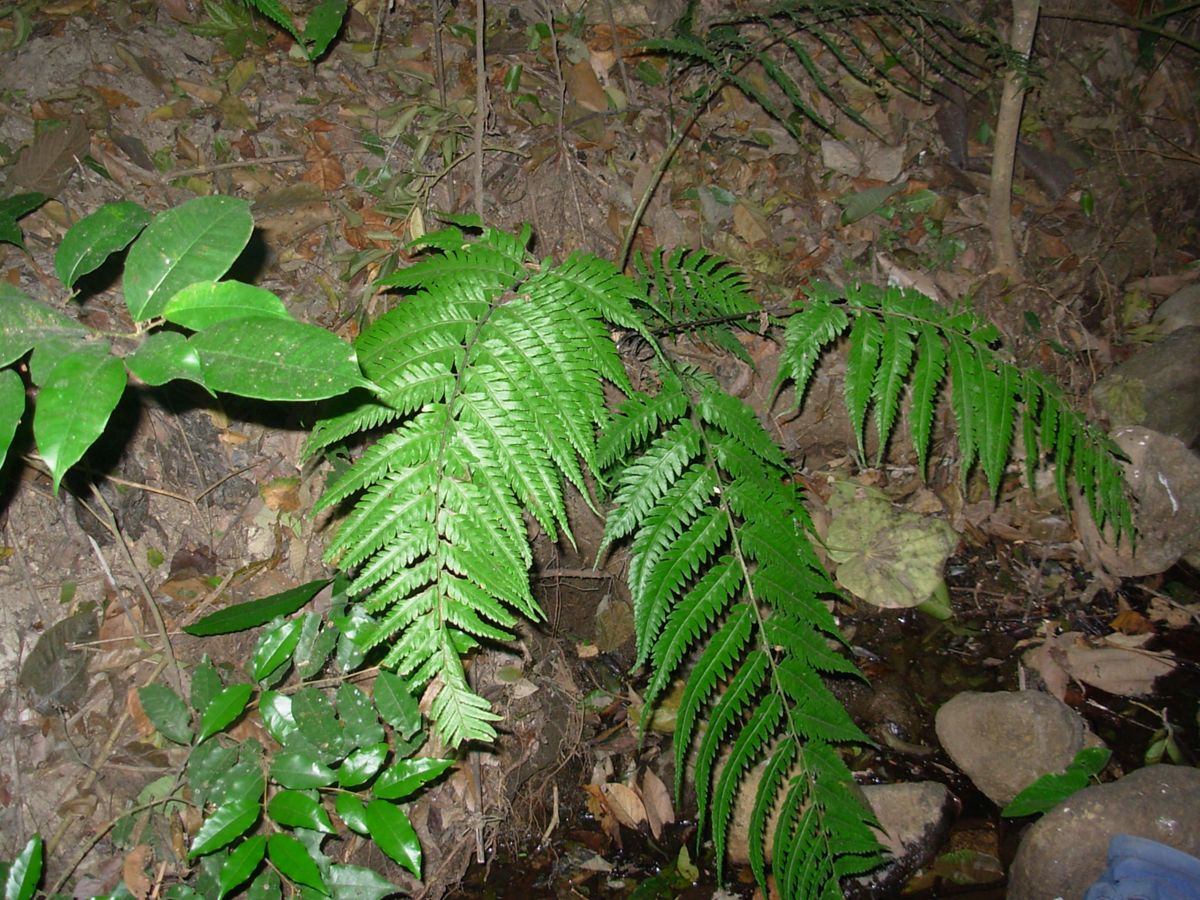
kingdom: Plantae
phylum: Tracheophyta
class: Polypodiopsida
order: Polypodiales
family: Athyriaceae
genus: Diplazium
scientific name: Diplazium drepanolobium
